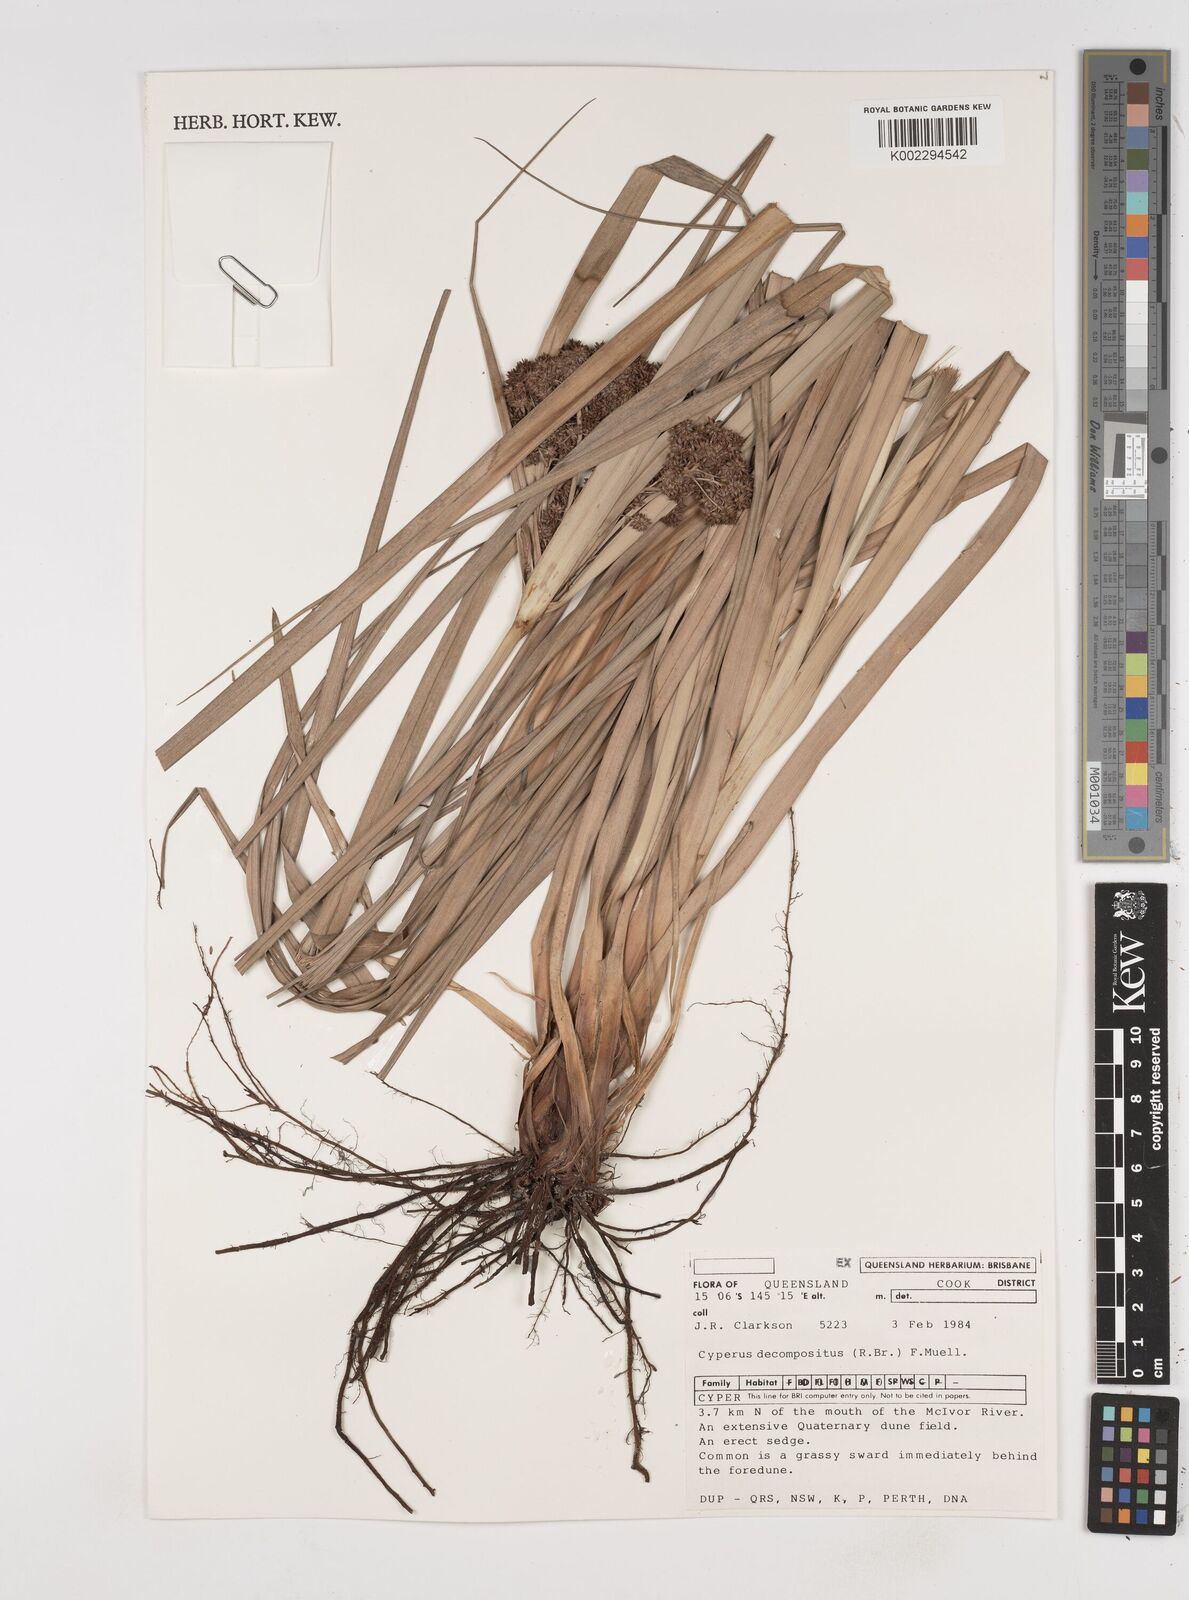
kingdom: Plantae
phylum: Tracheophyta
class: Liliopsida
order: Poales
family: Cyperaceae
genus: Cyperus
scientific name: Cyperus decompositus
